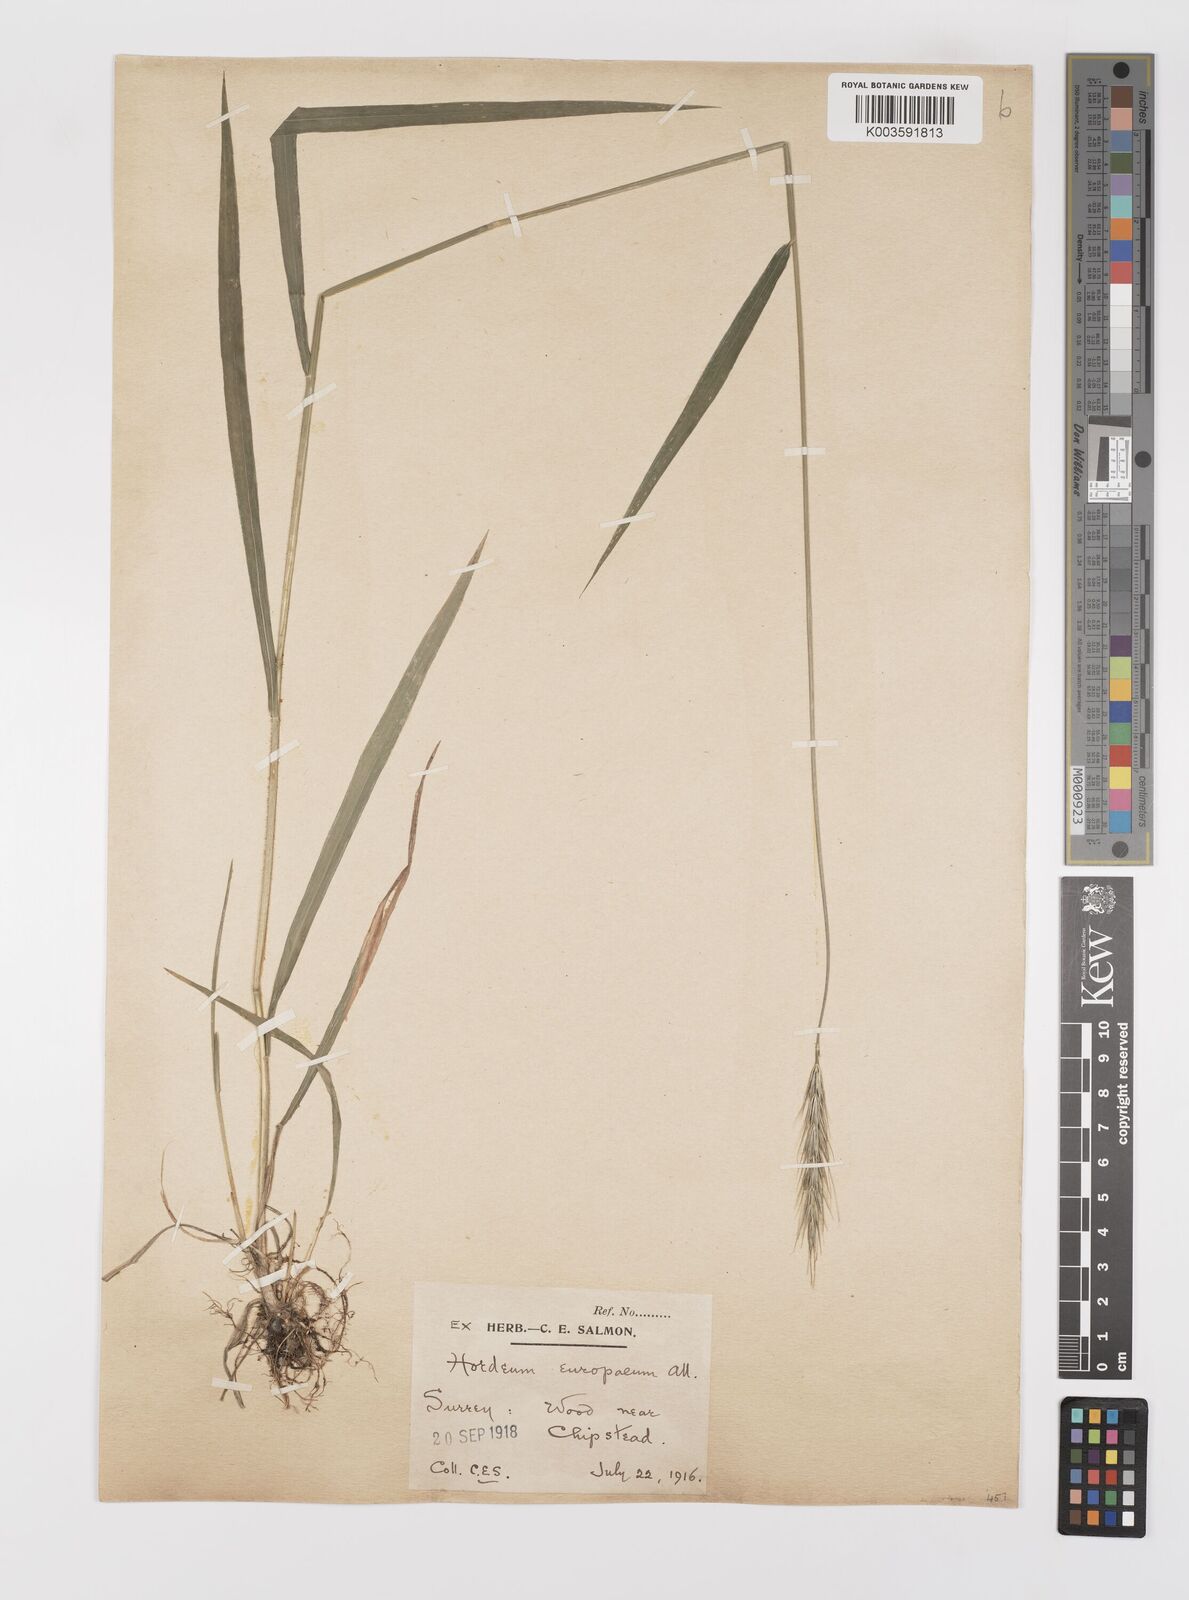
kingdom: Plantae
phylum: Tracheophyta
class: Liliopsida
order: Poales
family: Poaceae
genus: Hordelymus
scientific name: Hordelymus europaeus
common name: Wood-barley
